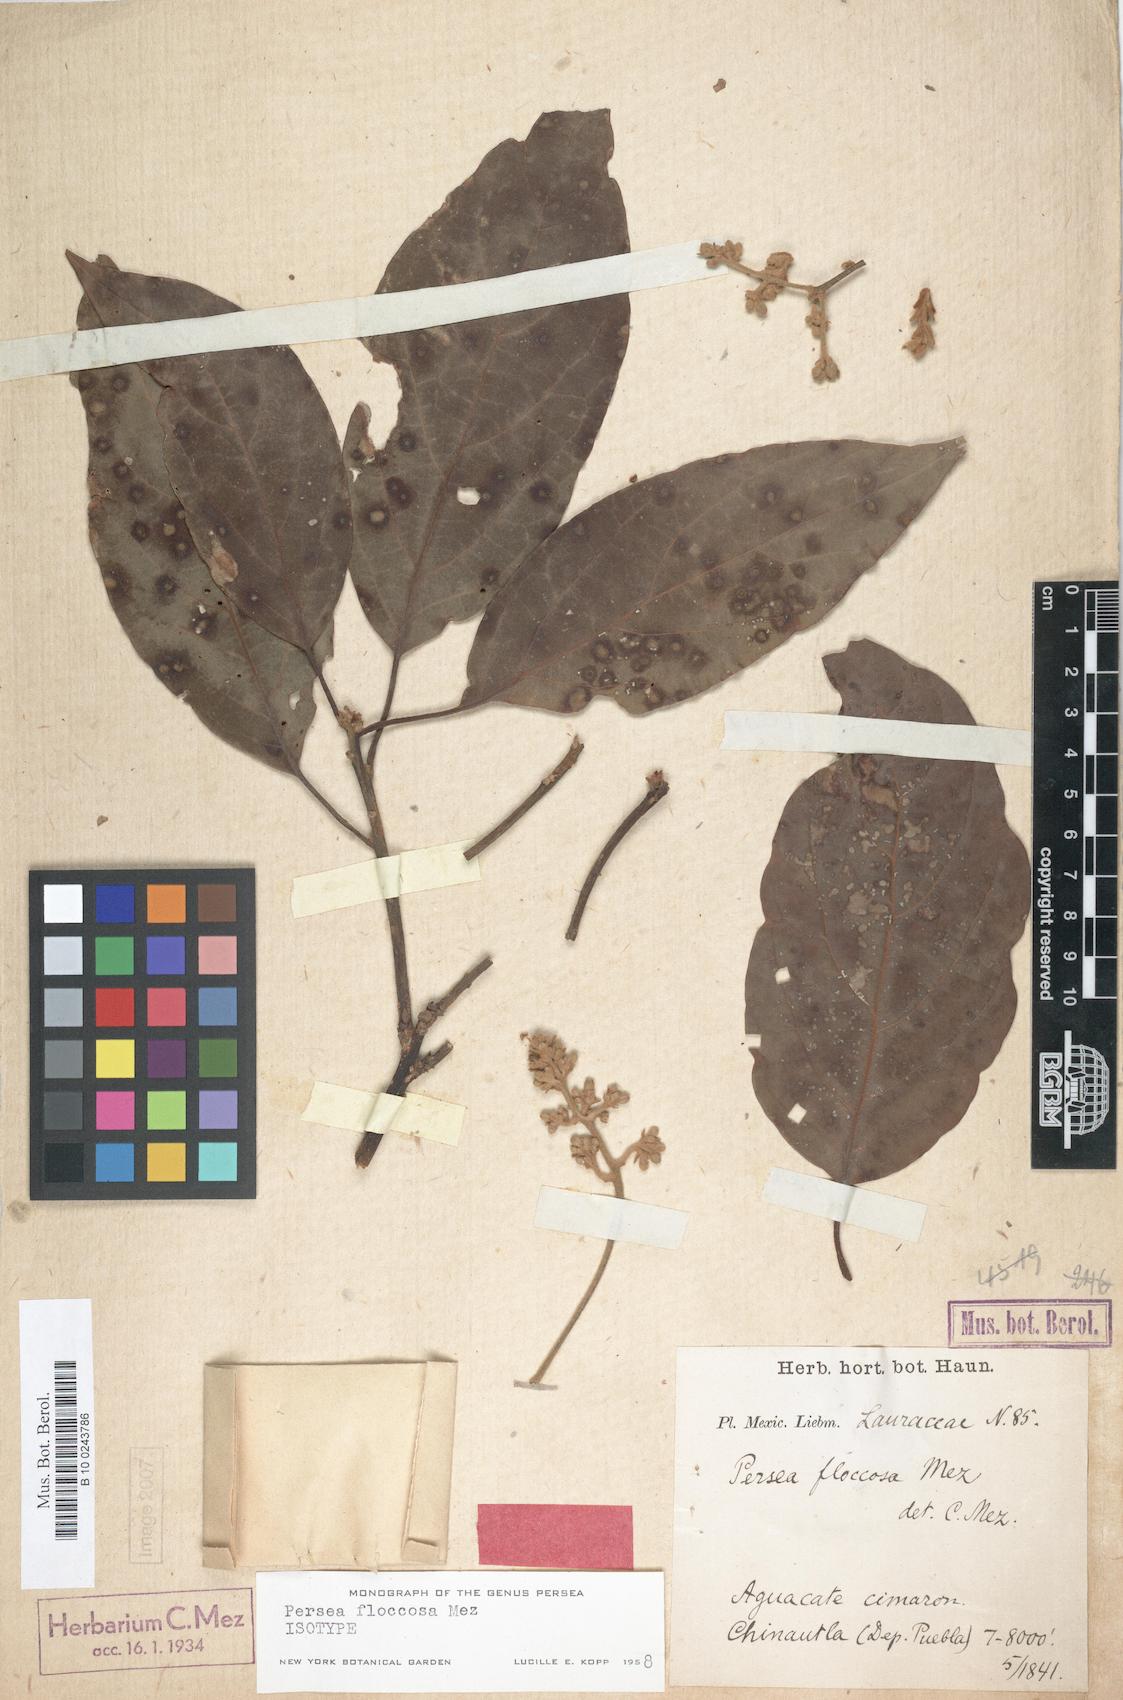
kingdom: Plantae
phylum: Tracheophyta
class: Magnoliopsida
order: Laurales
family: Lauraceae
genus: Persea
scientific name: Persea americana
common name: Avocado
